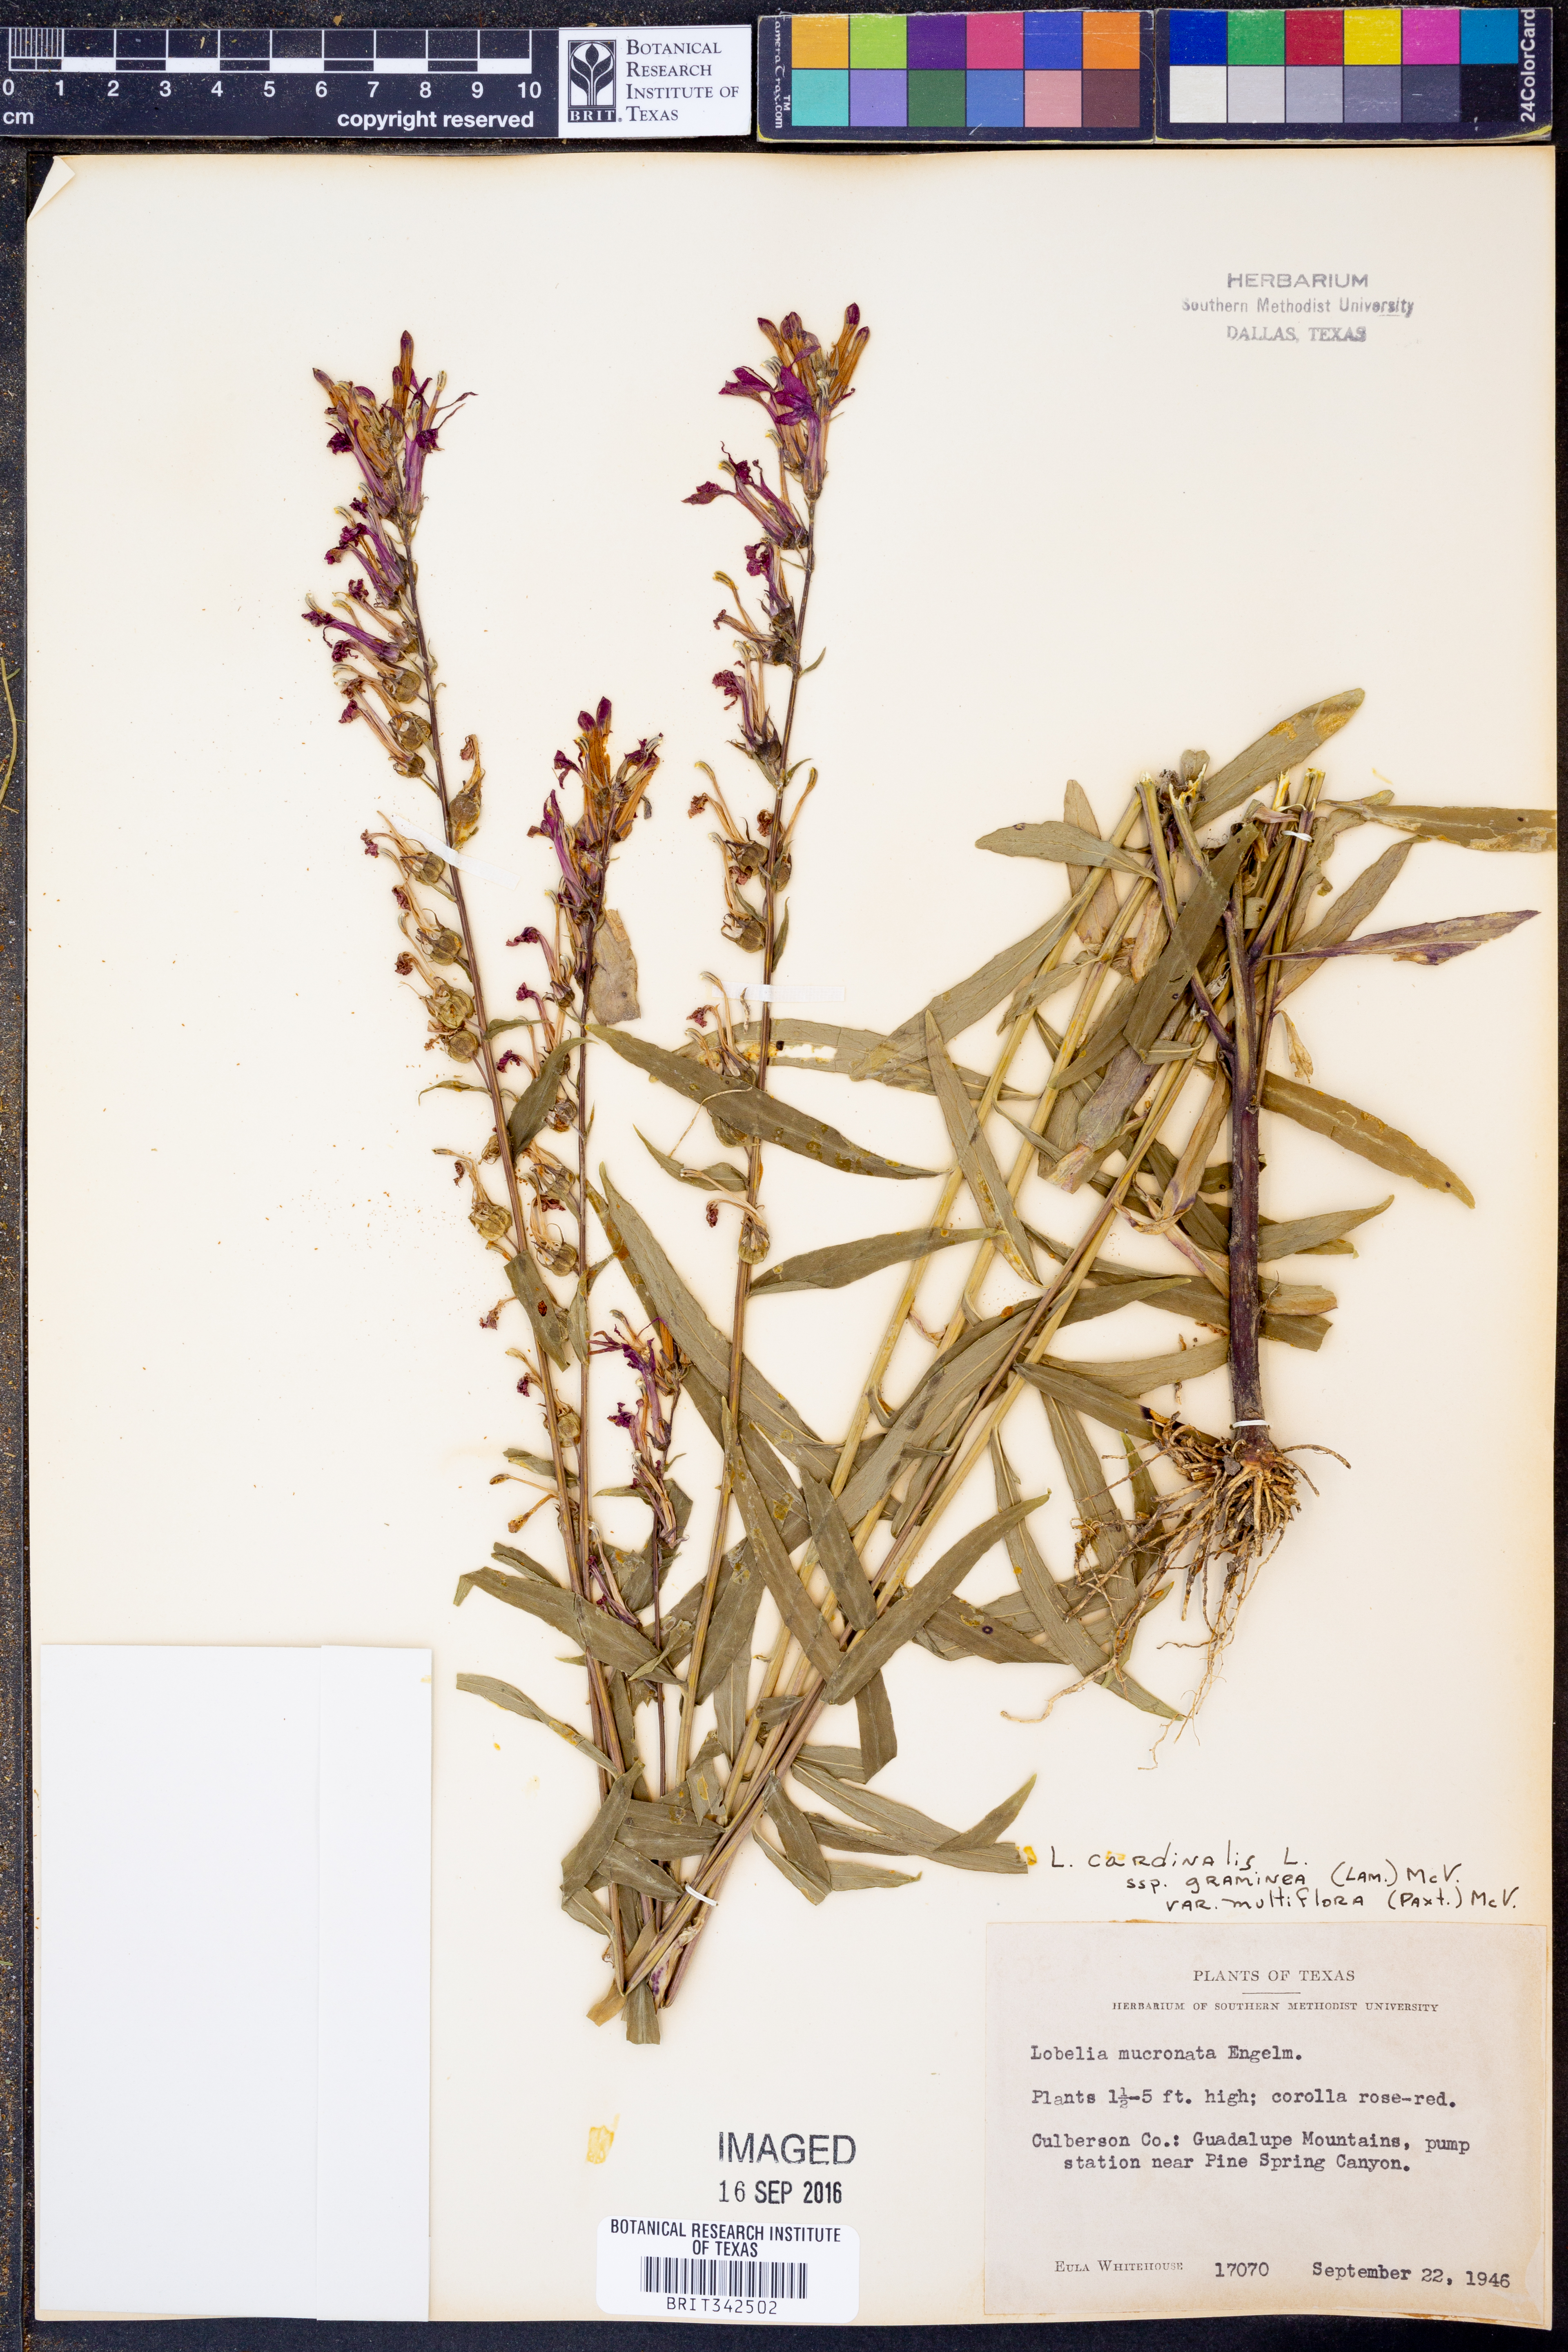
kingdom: Plantae
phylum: Tracheophyta
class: Magnoliopsida
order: Asterales
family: Campanulaceae
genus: Lobelia
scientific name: Lobelia cardinalis
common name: Cardinal flower
